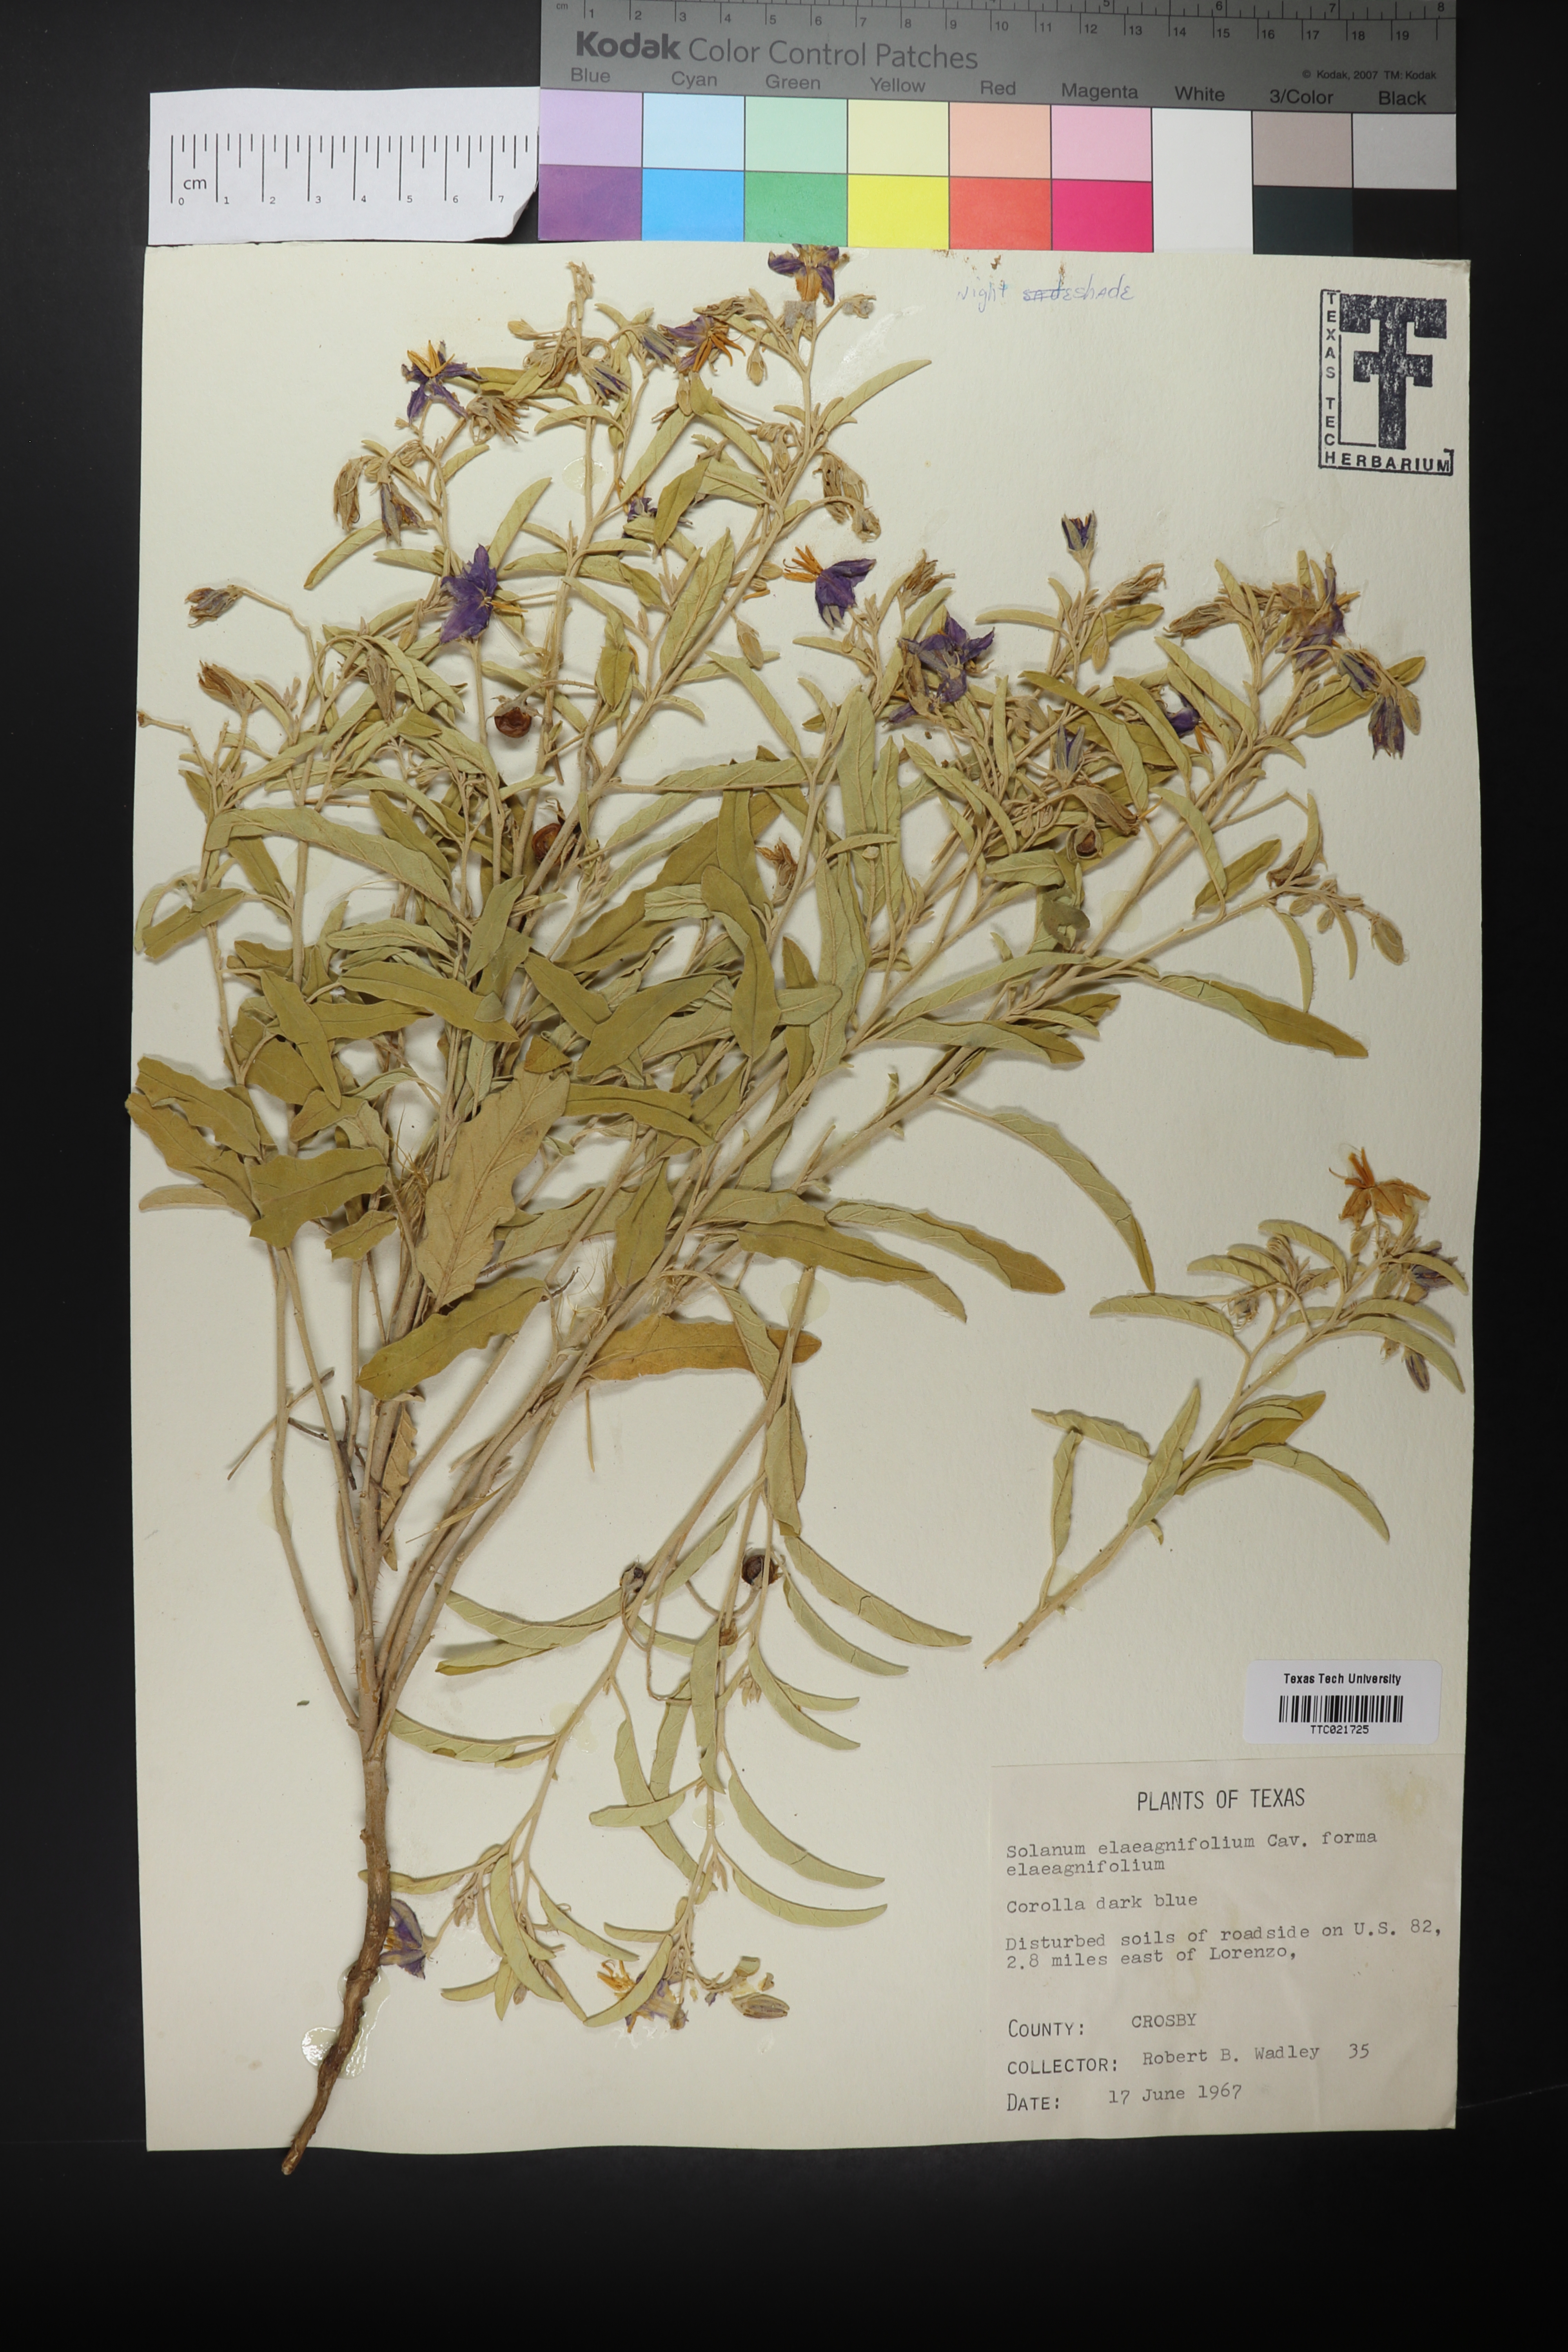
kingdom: Plantae
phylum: Tracheophyta
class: Magnoliopsida
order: Solanales
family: Solanaceae
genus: Solanum
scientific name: Solanum elaeagnifolium
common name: Silverleaf nightshade
